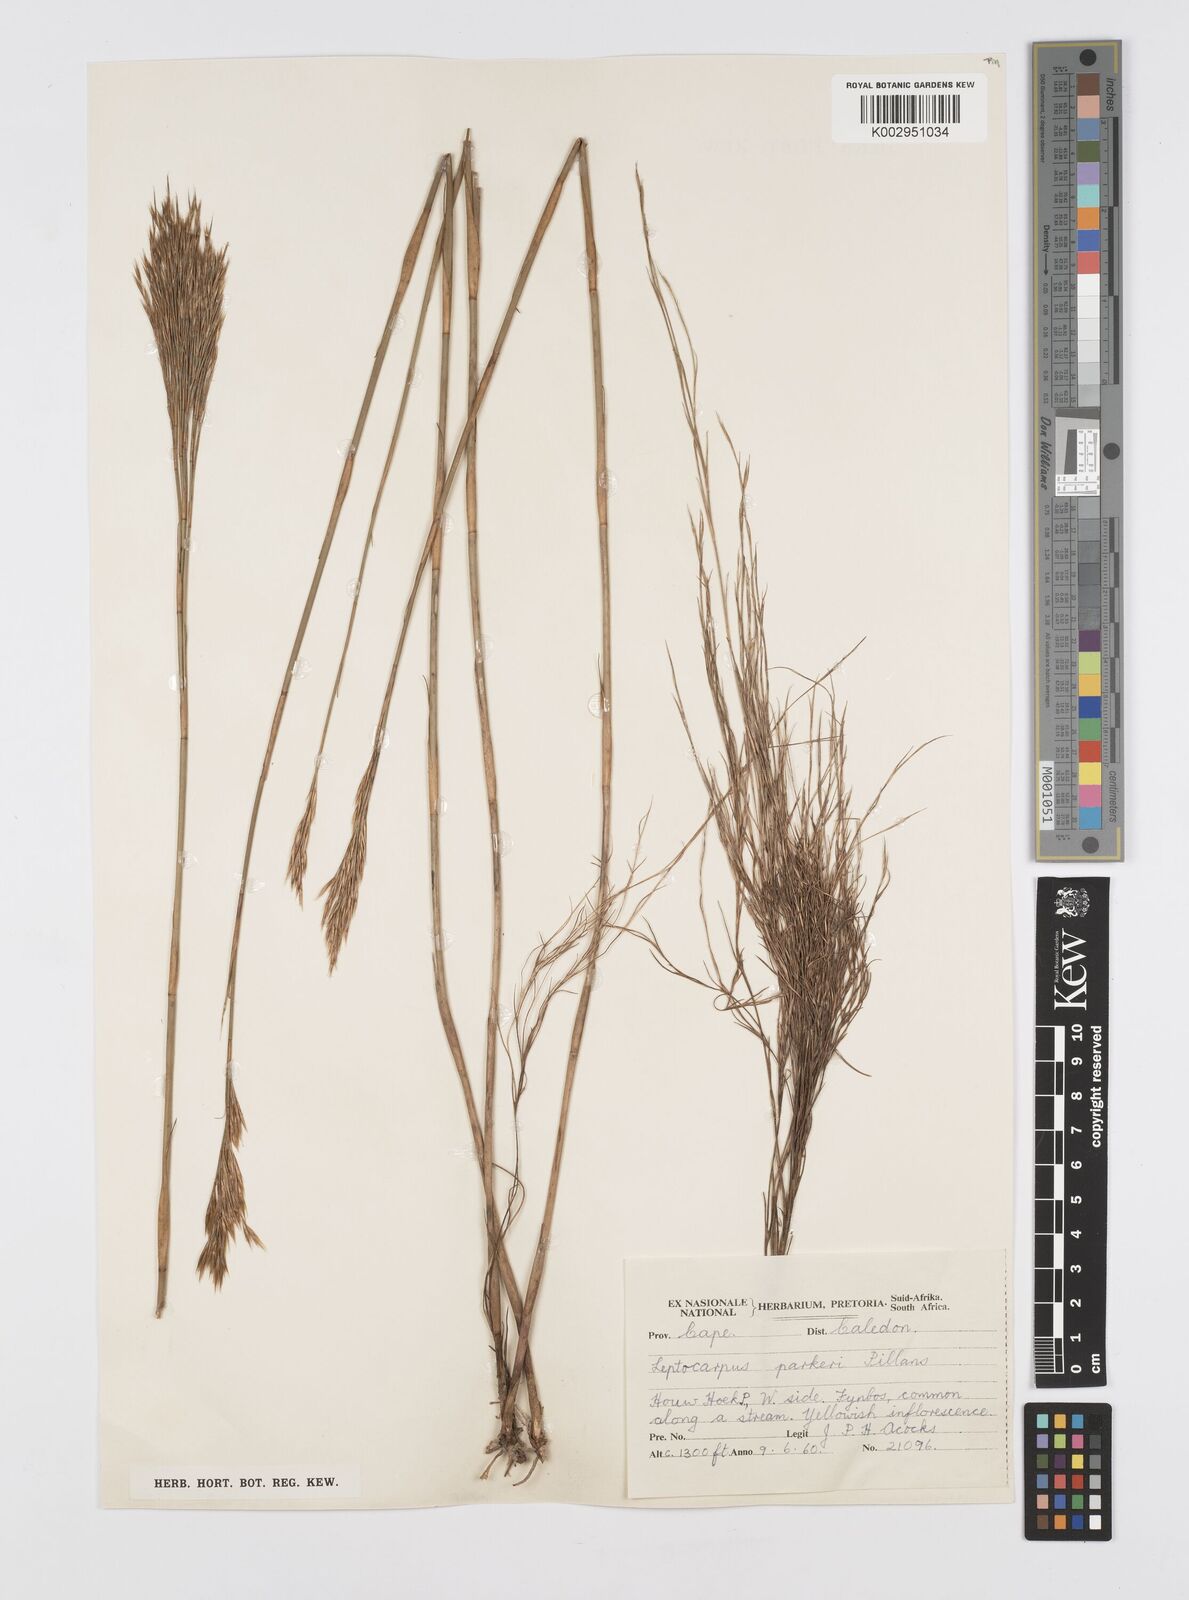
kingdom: Plantae
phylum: Tracheophyta
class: Liliopsida
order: Poales
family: Restionaceae
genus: Restio
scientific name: Restio festuciformis
